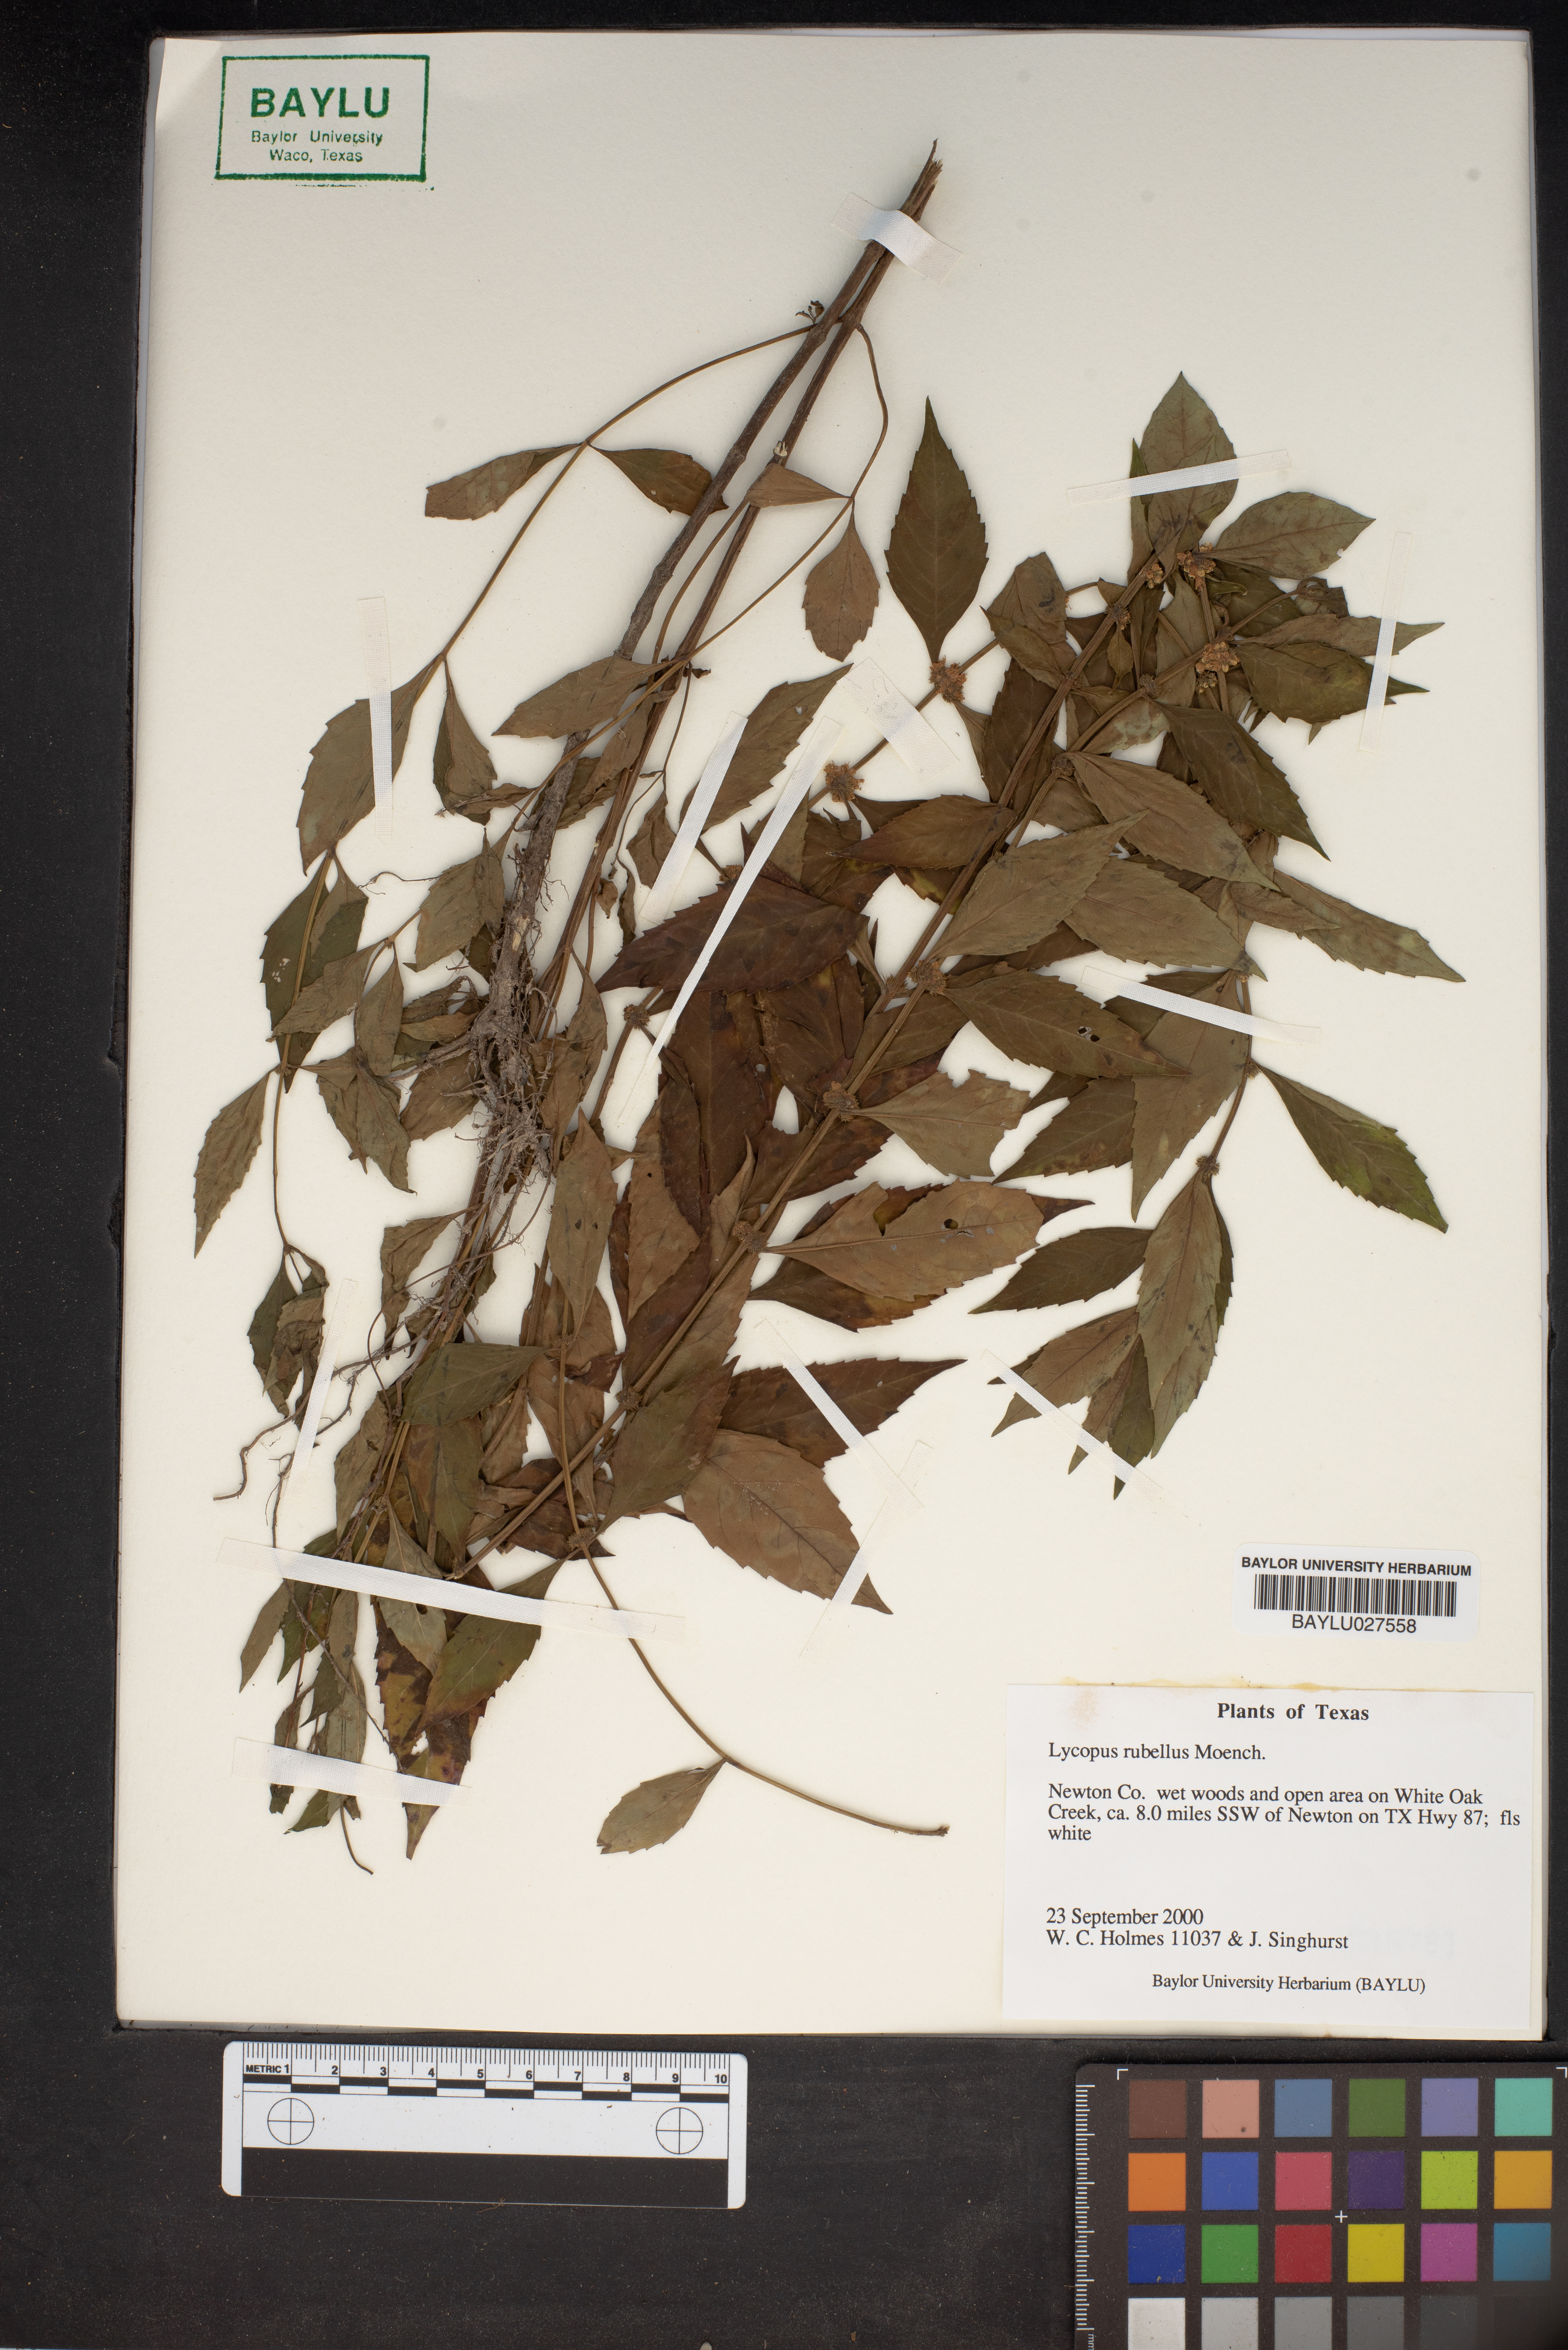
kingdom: Plantae
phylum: Tracheophyta
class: Magnoliopsida
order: Lamiales
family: Lamiaceae
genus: Lycopus
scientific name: Lycopus rubellus
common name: Stalked bugleweed
